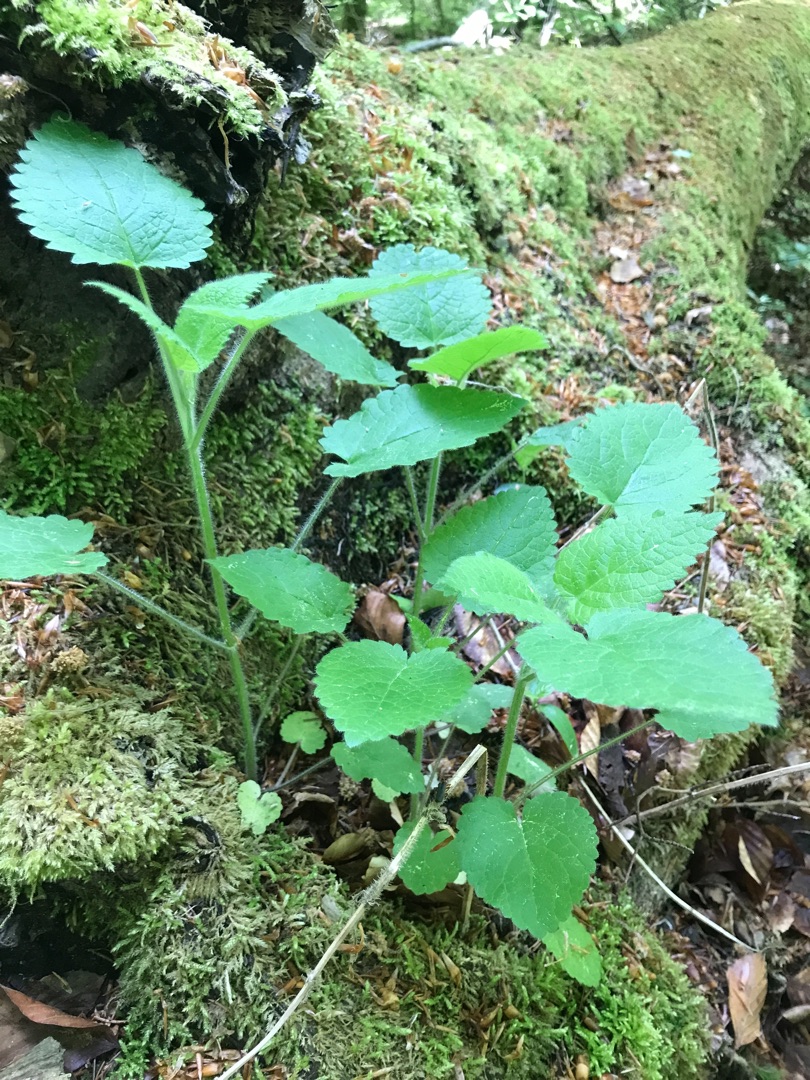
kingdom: Plantae
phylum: Tracheophyta
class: Magnoliopsida
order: Lamiales
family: Lamiaceae
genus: Stachys
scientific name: Stachys sylvatica
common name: Skov-galtetand
